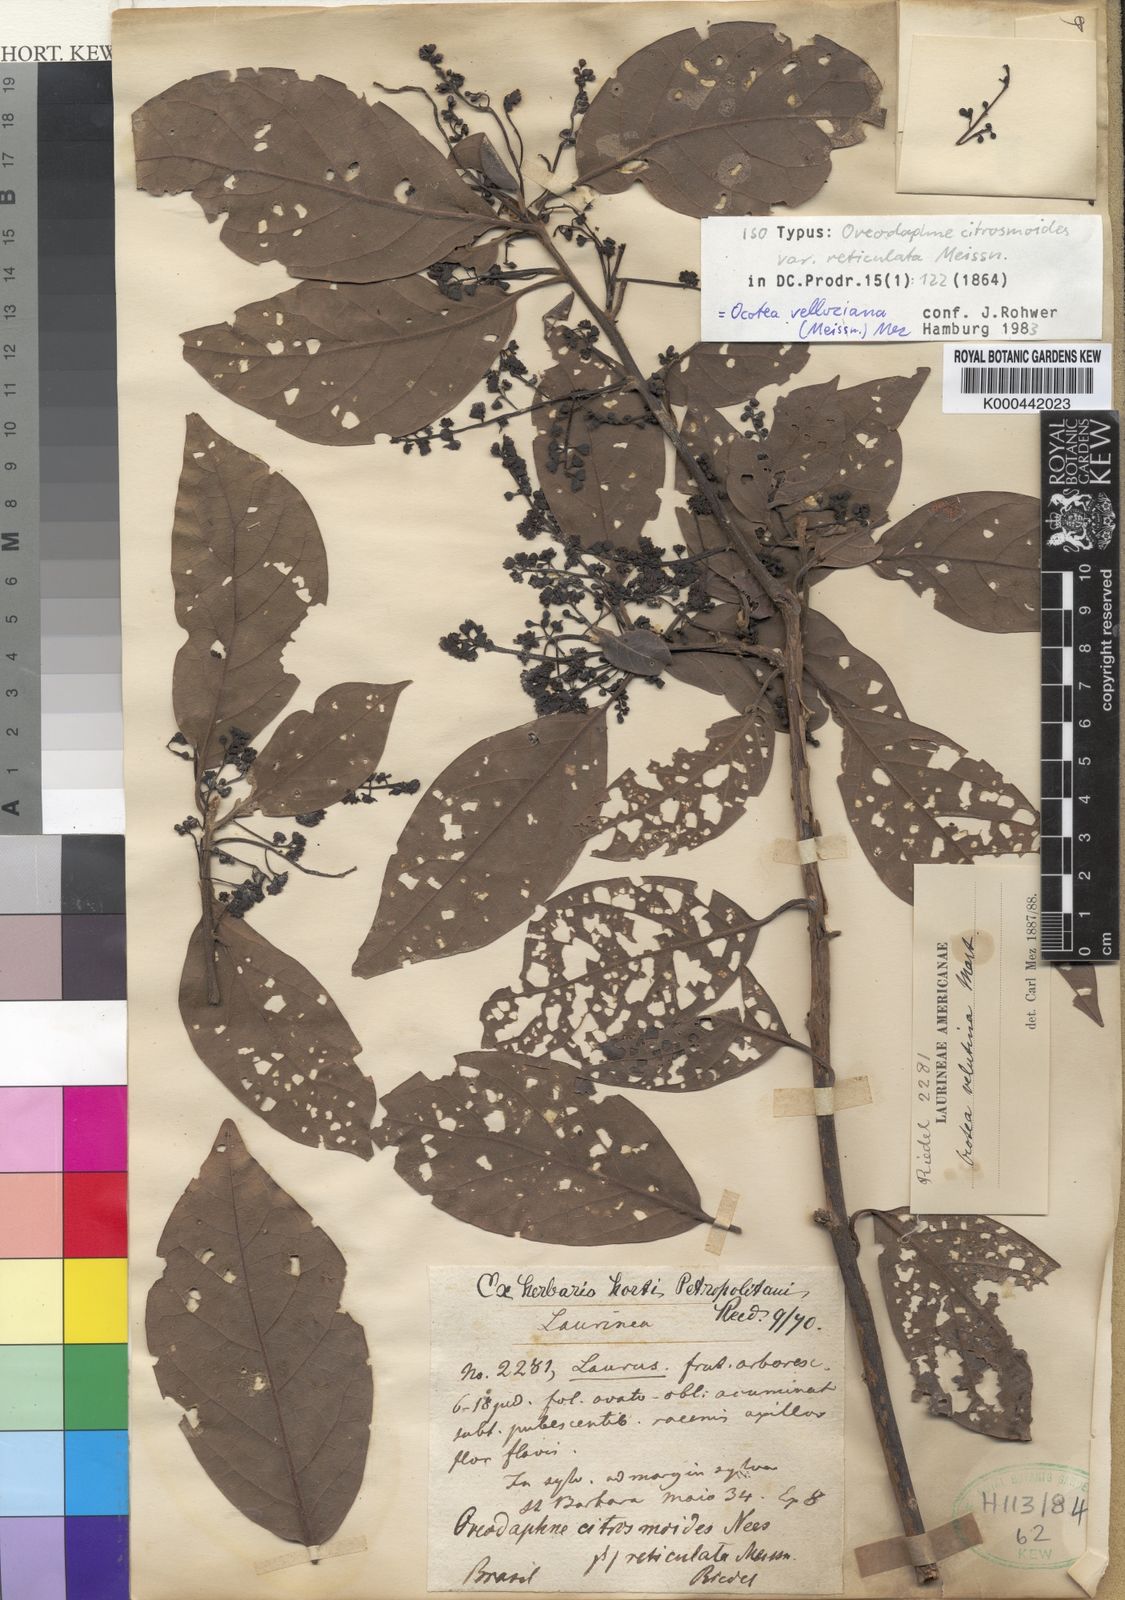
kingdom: Plantae
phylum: Tracheophyta
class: Magnoliopsida
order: Laurales
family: Lauraceae
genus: Ocotea
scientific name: Ocotea velloziana
